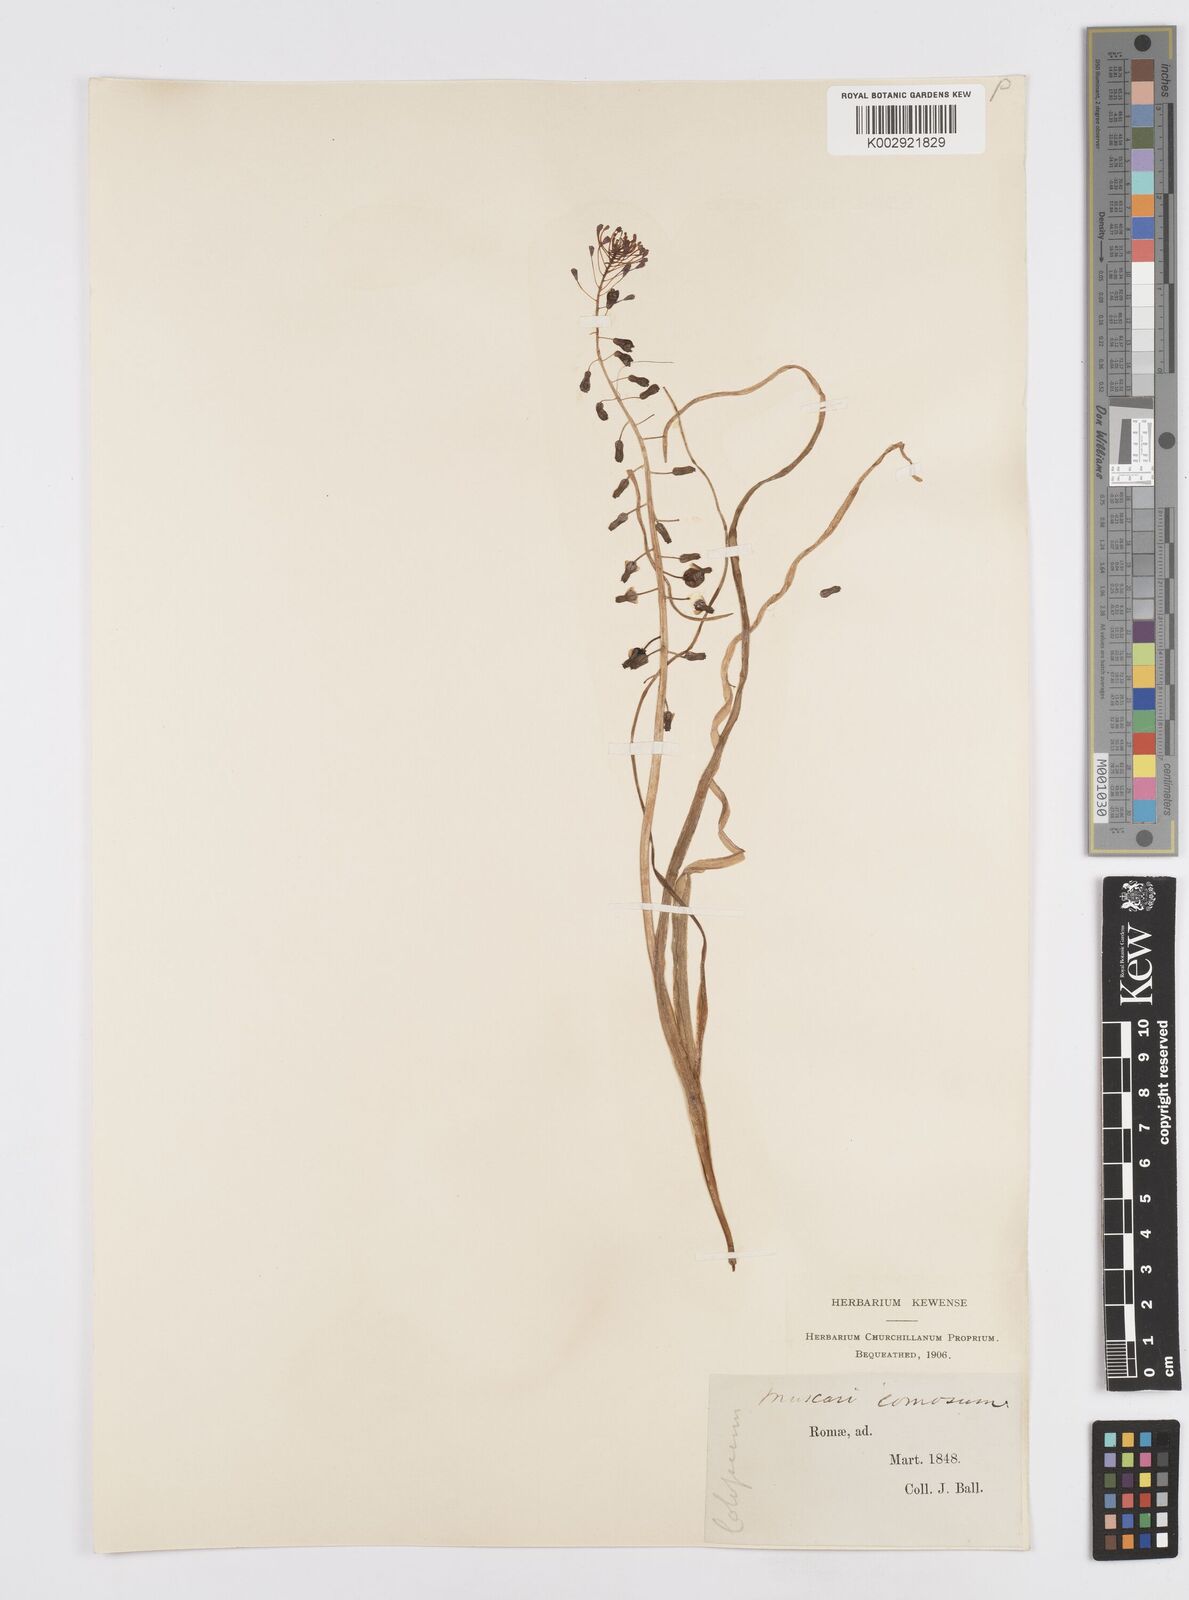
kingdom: Plantae
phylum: Tracheophyta
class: Liliopsida
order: Asparagales
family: Asparagaceae
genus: Muscari
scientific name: Muscari comosum
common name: Tassel hyacinth
